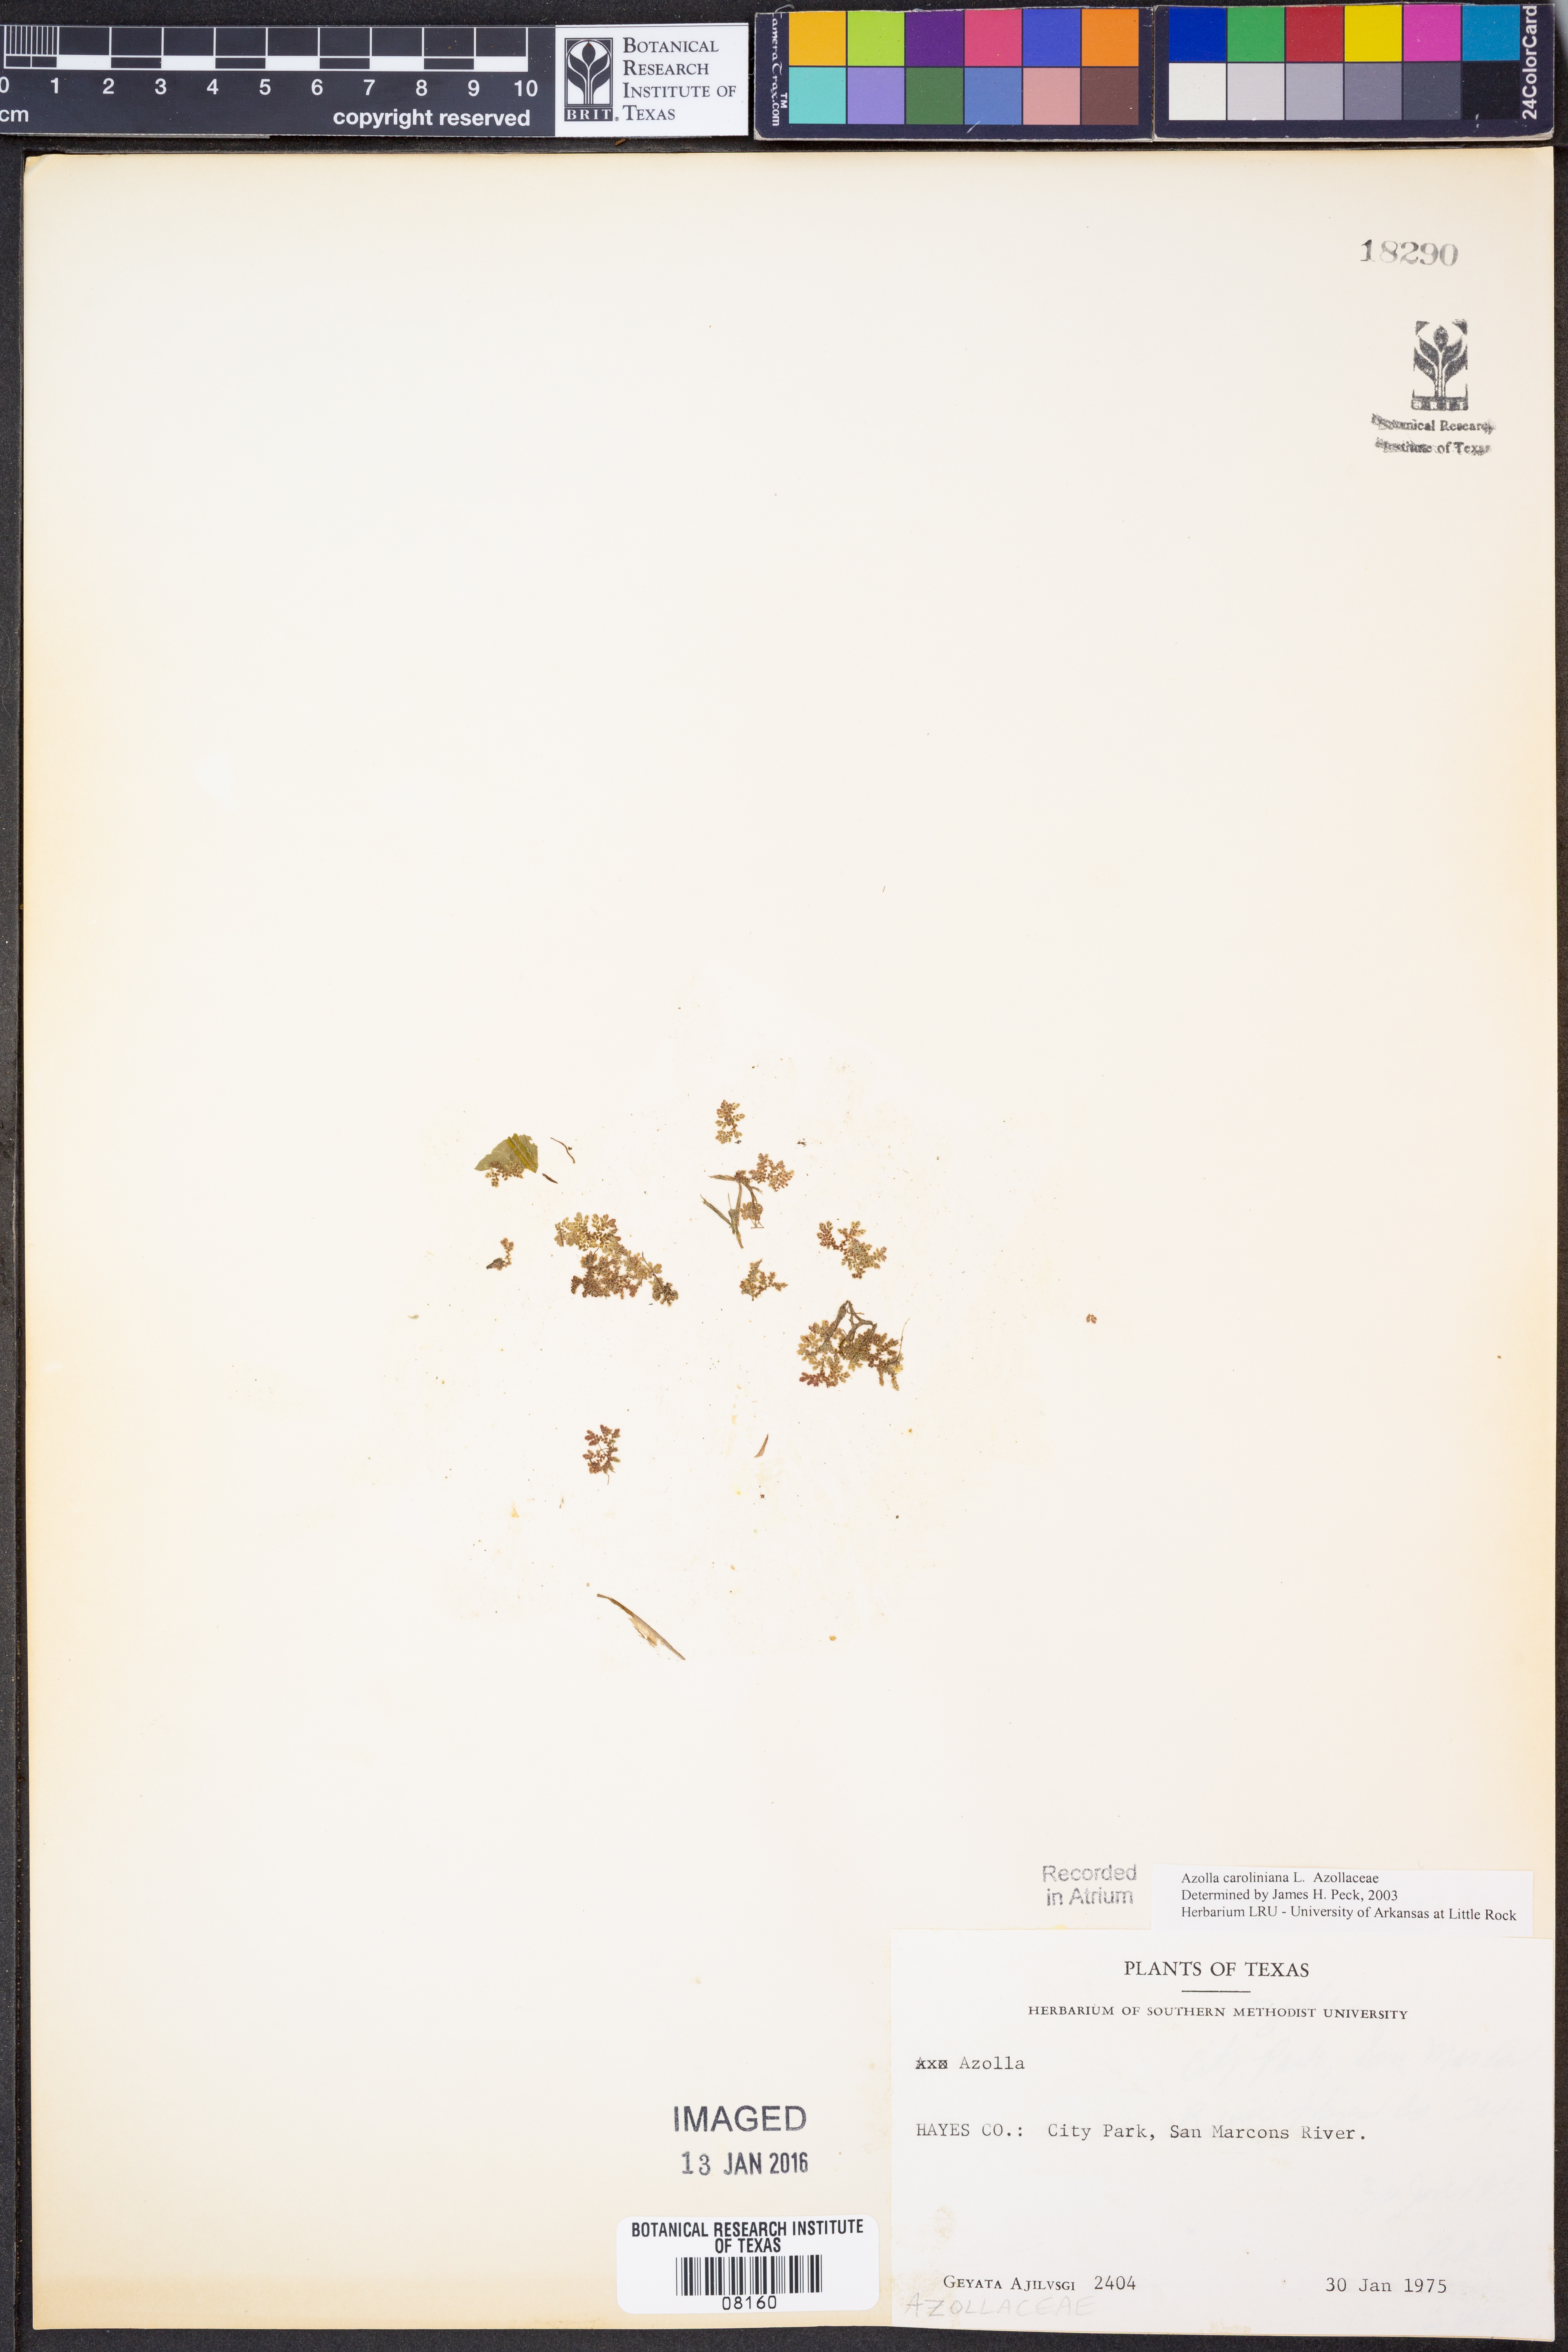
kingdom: Plantae
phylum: Tracheophyta
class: Polypodiopsida
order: Salviniales
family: Salviniaceae
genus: Azolla
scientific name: Azolla caroliniana
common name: Carolina mosquitofern
